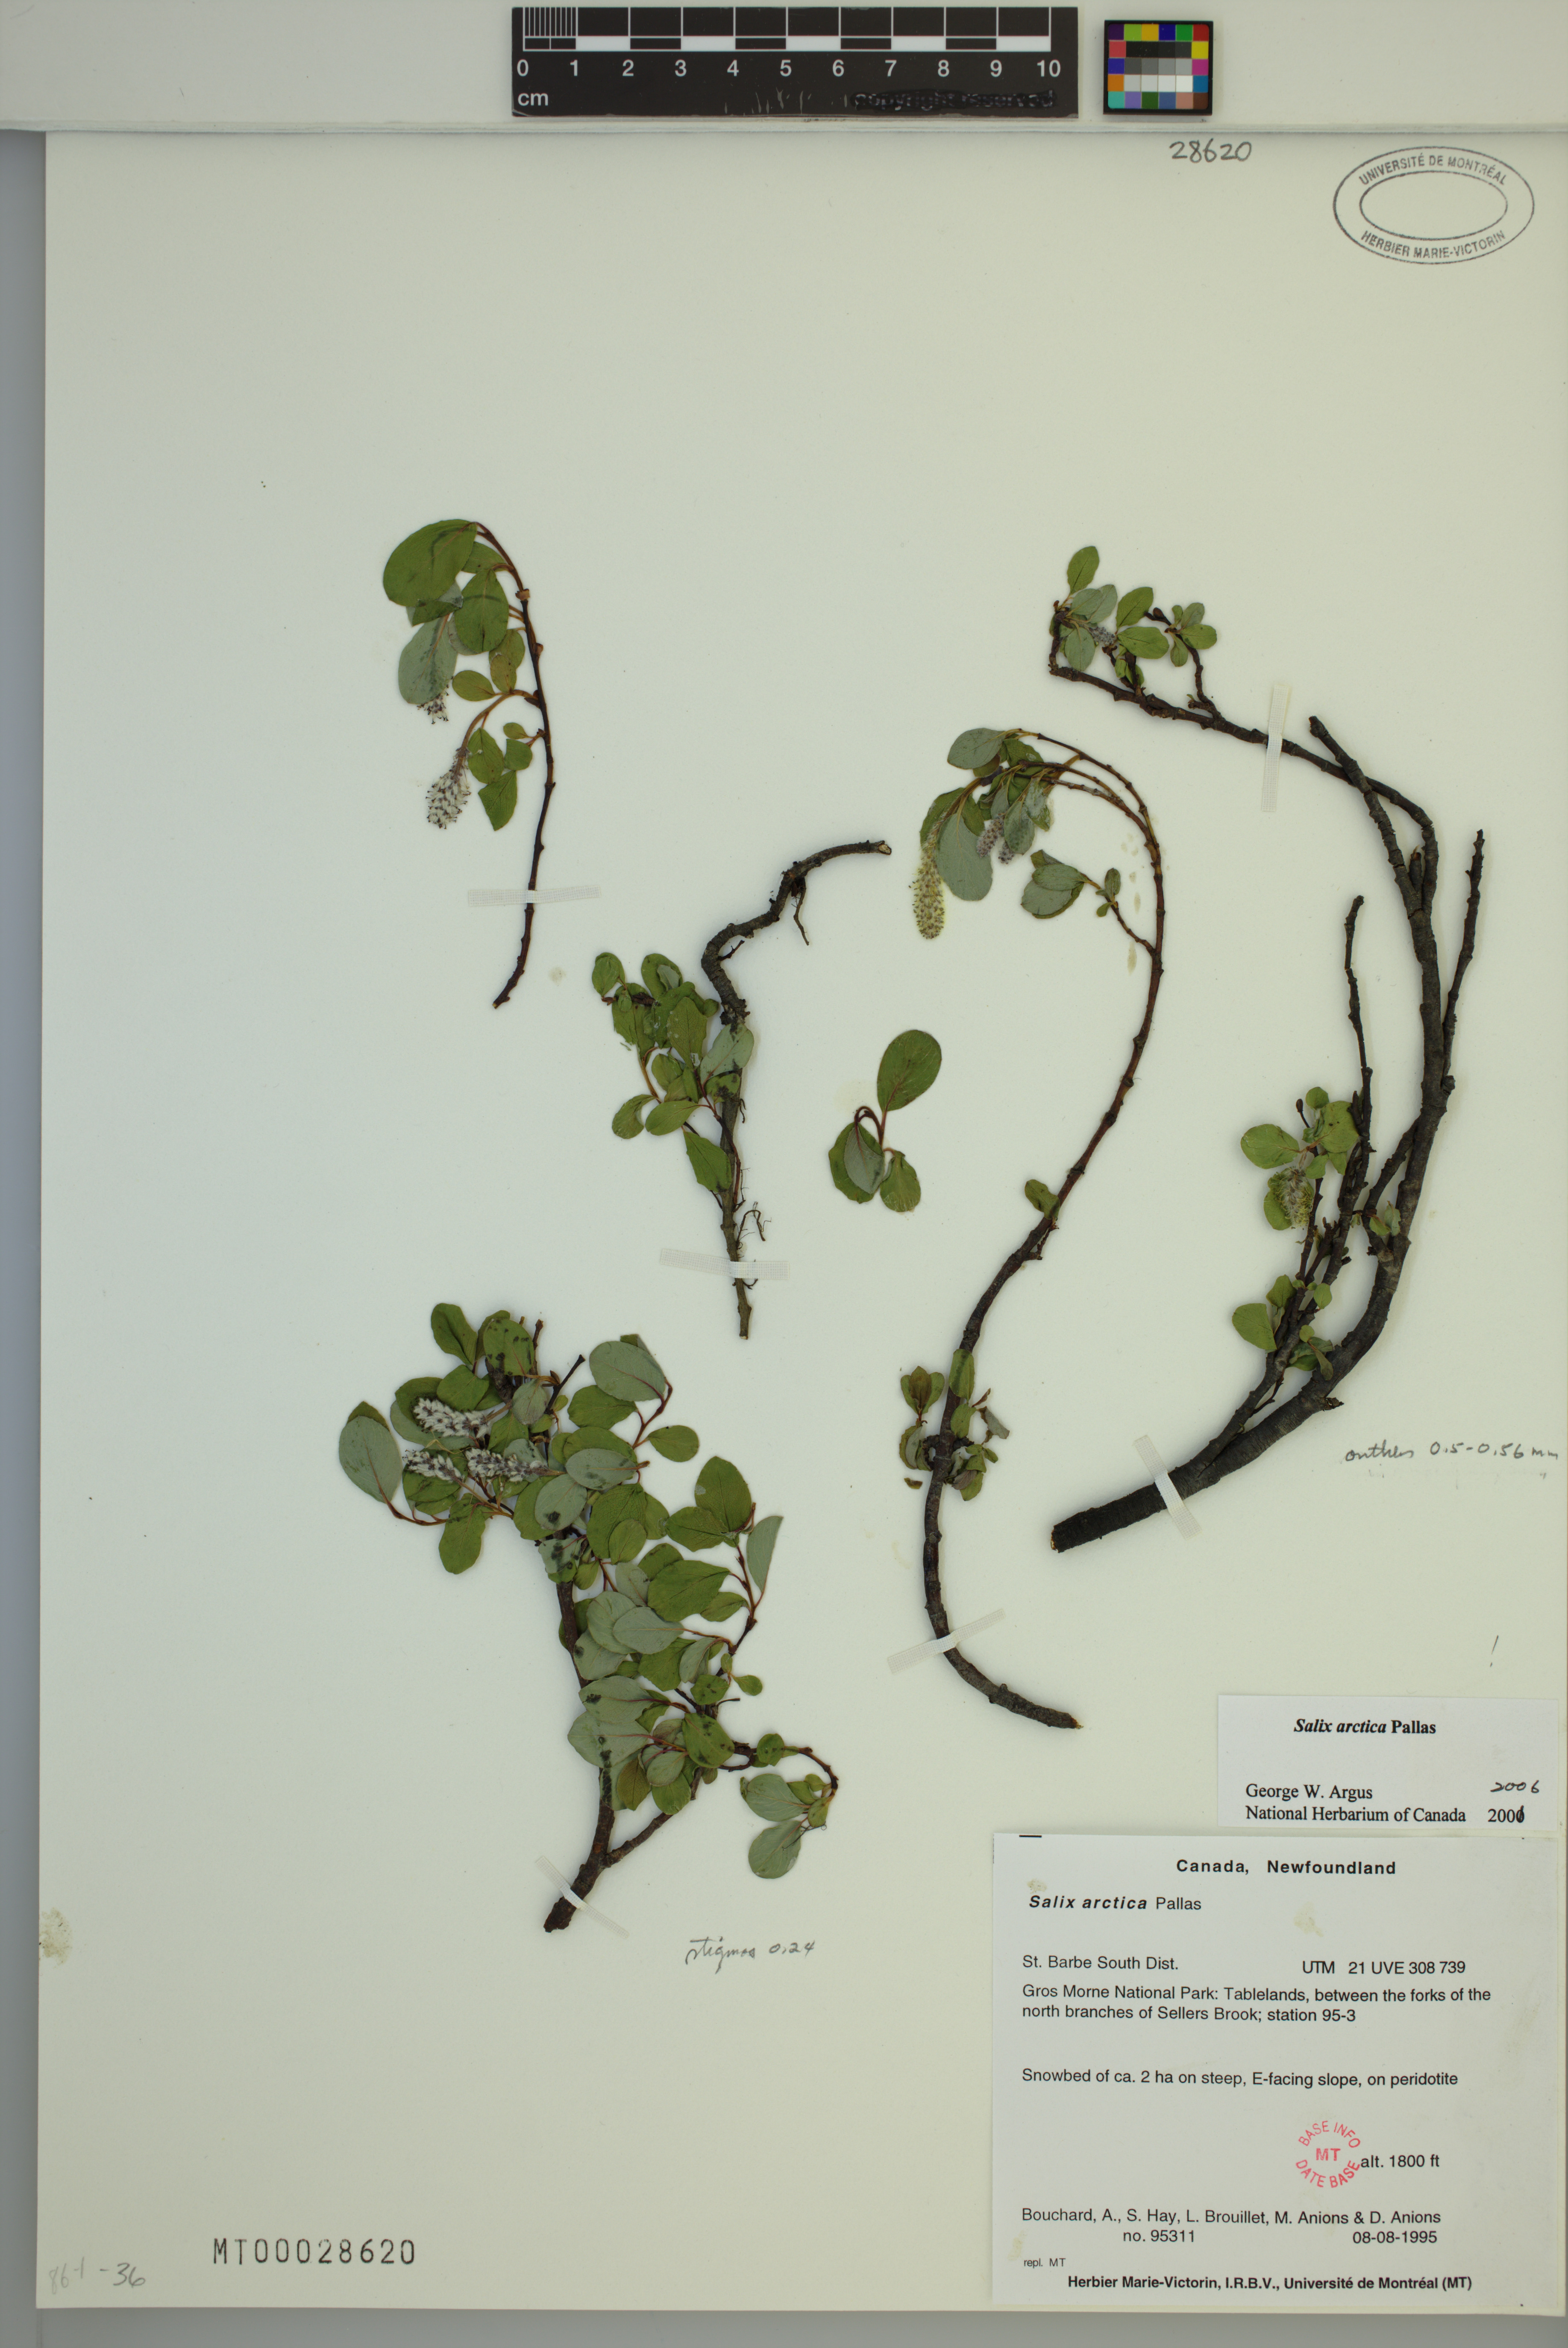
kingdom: Plantae
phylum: Tracheophyta
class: Magnoliopsida
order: Malpighiales
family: Salicaceae
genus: Salix
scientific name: Salix arctica
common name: Arctic willow
